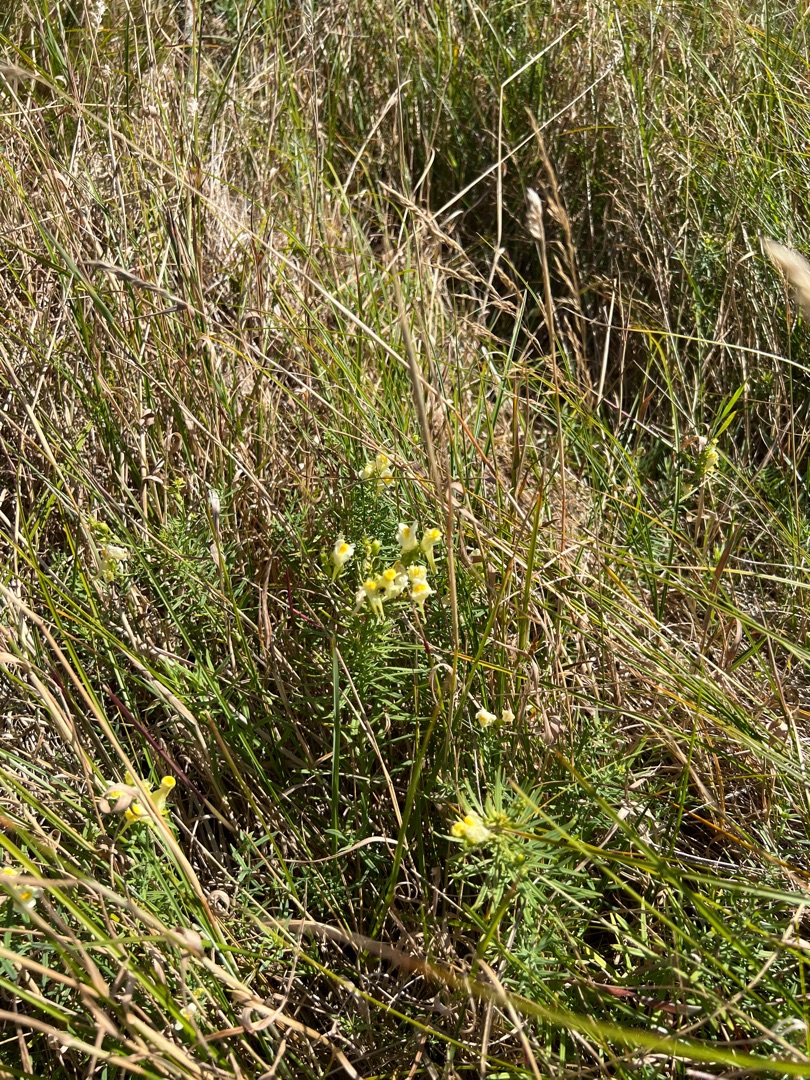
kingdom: Plantae
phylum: Tracheophyta
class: Magnoliopsida
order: Lamiales
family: Plantaginaceae
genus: Linaria
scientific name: Linaria vulgaris
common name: Almindelig torskemund
